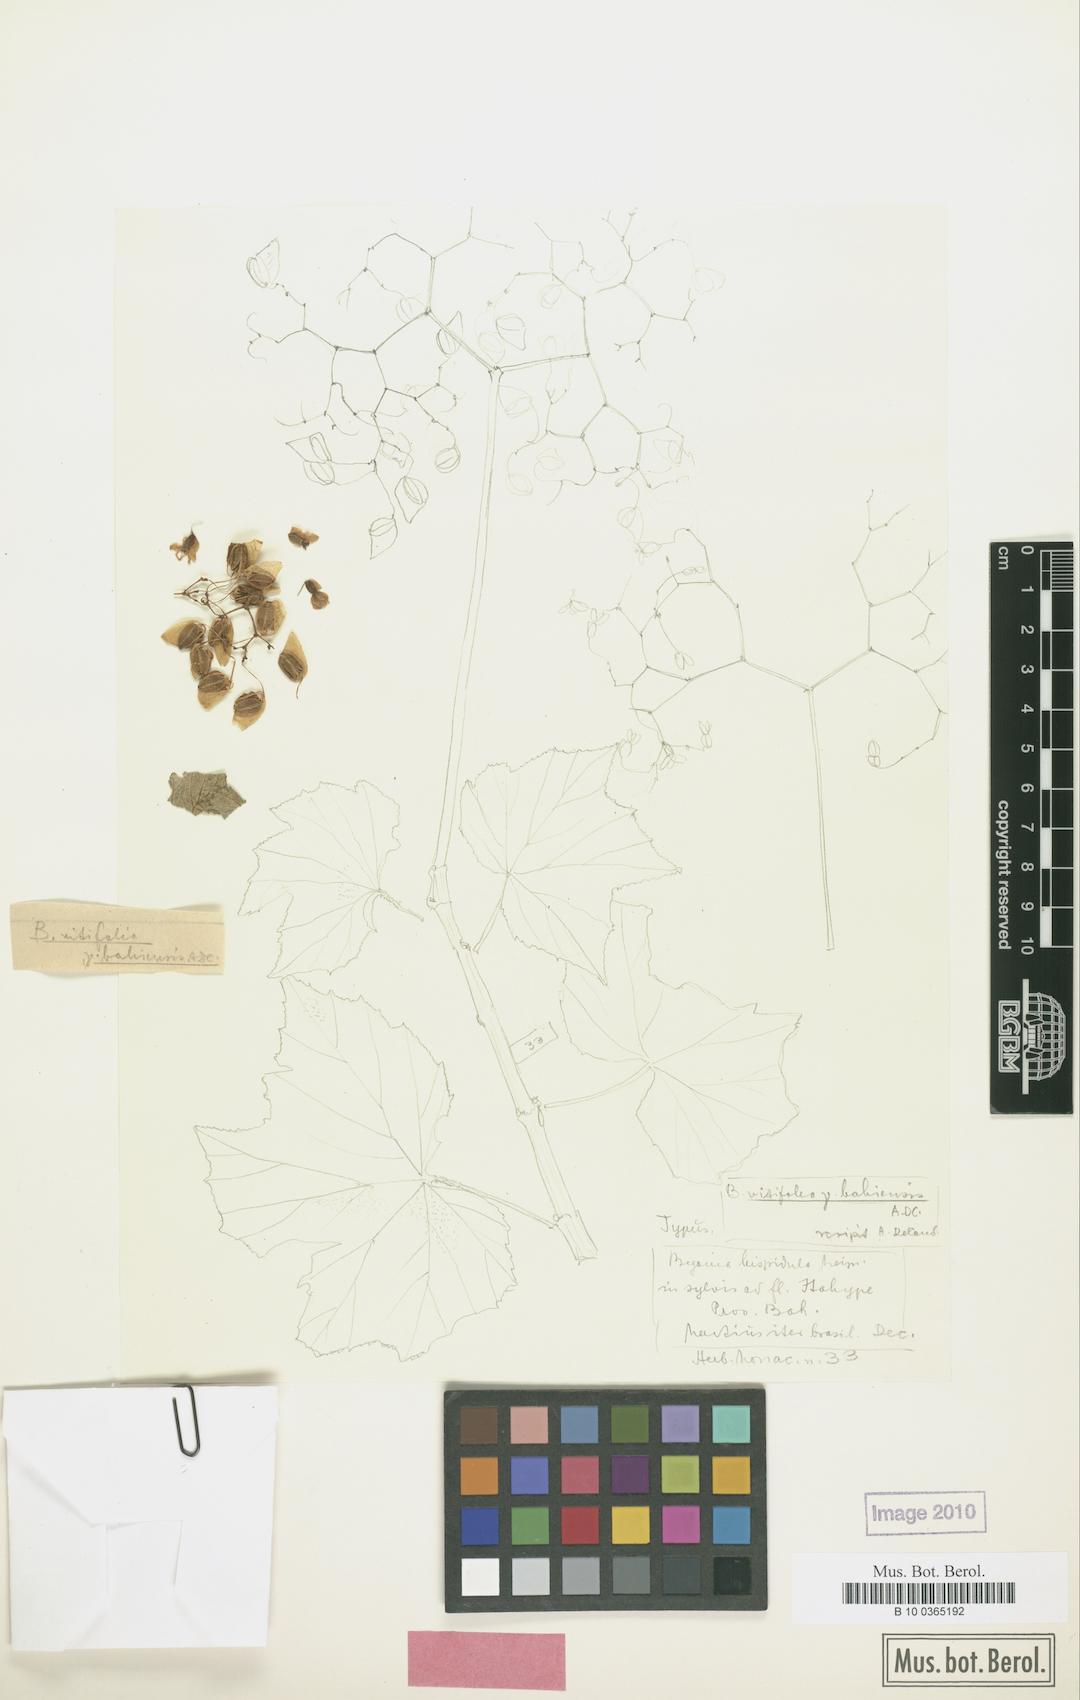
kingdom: Plantae
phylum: Tracheophyta
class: Magnoliopsida
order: Cucurbitales
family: Begoniaceae
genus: Begonia
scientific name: Begonia reniformis
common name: Grapeleaf begonia
